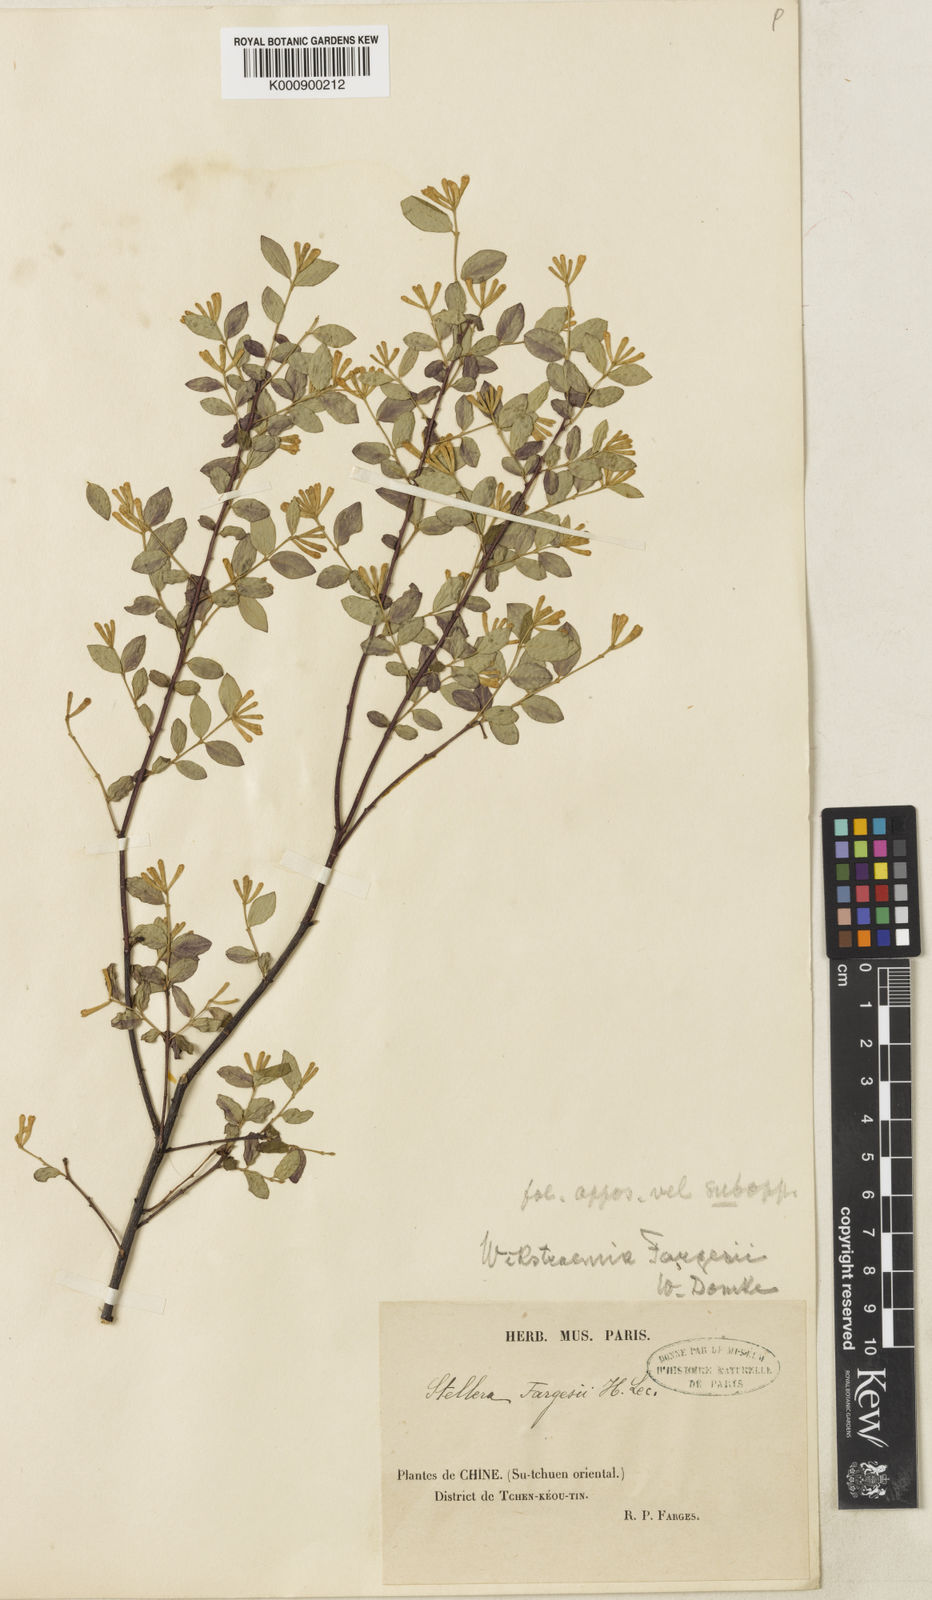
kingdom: Plantae
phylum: Tracheophyta
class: Magnoliopsida
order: Malvales
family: Thymelaeaceae
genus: Wikstroemia
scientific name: Wikstroemia fargesii
